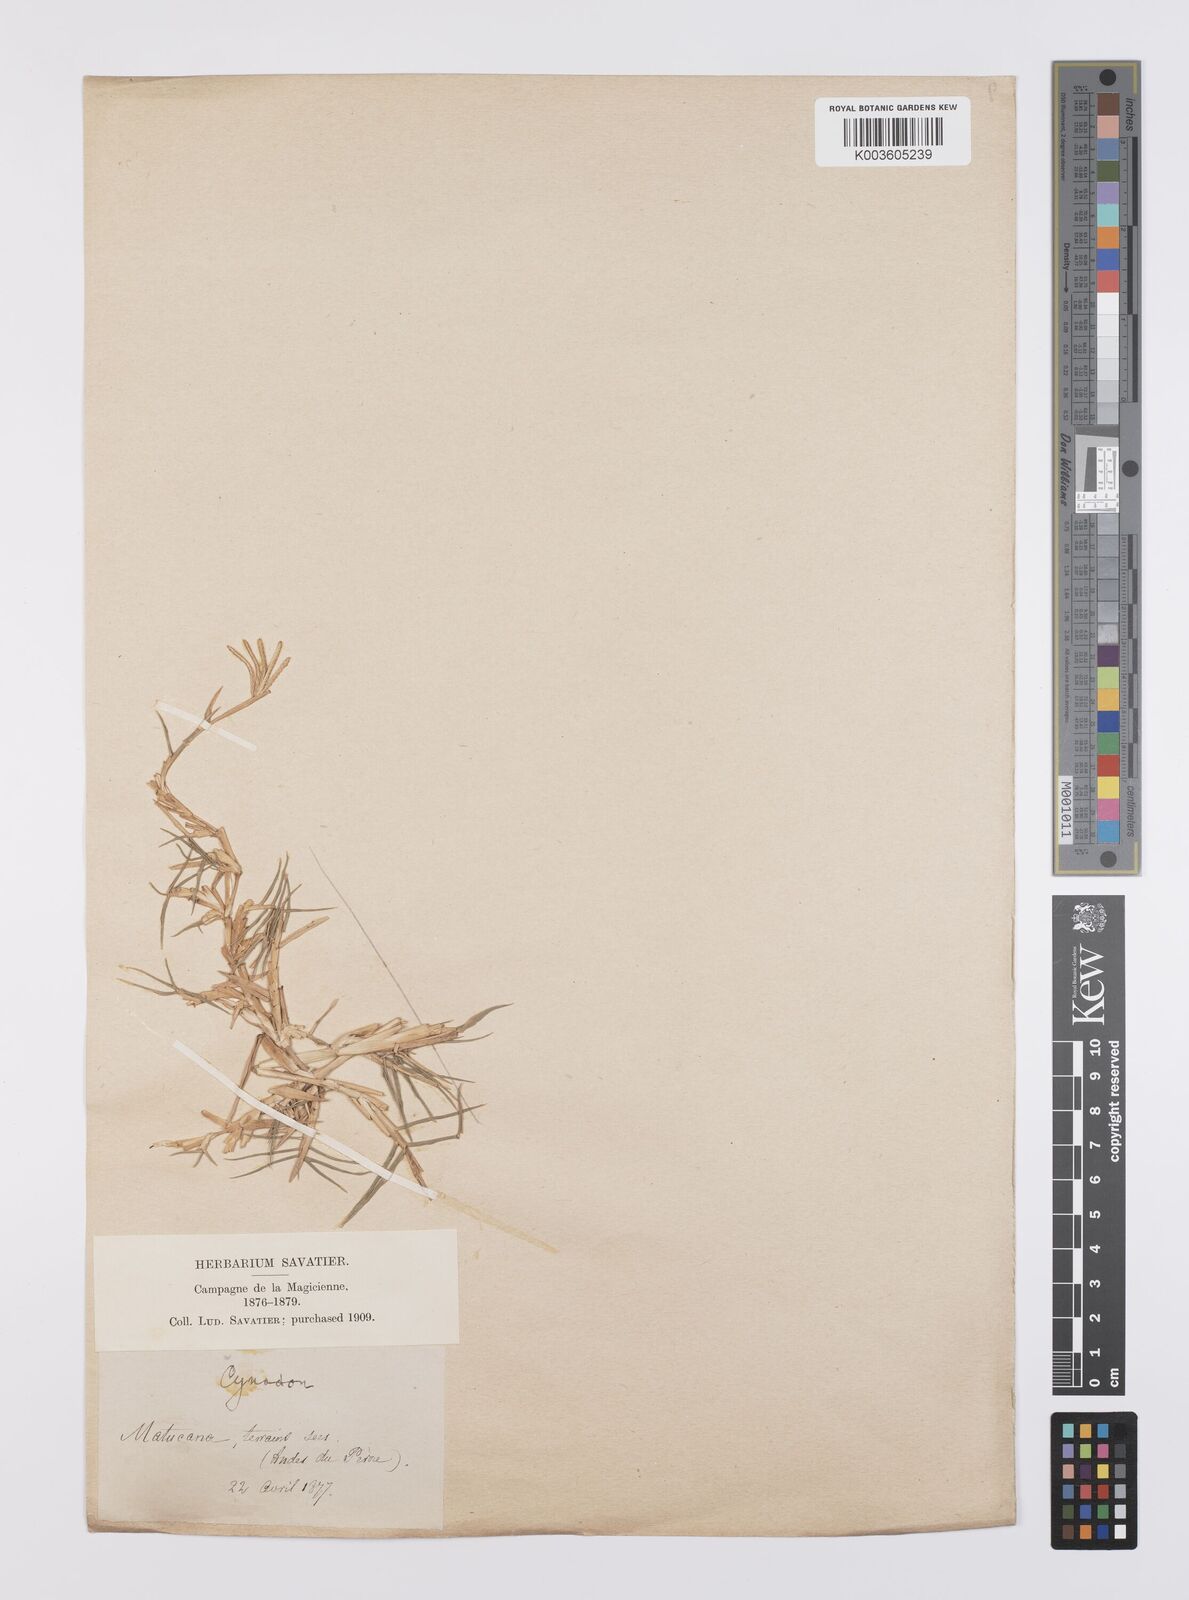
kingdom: Plantae
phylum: Tracheophyta
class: Liliopsida
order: Poales
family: Poaceae
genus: Cynodon
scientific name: Cynodon dactylon
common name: Bermuda grass
